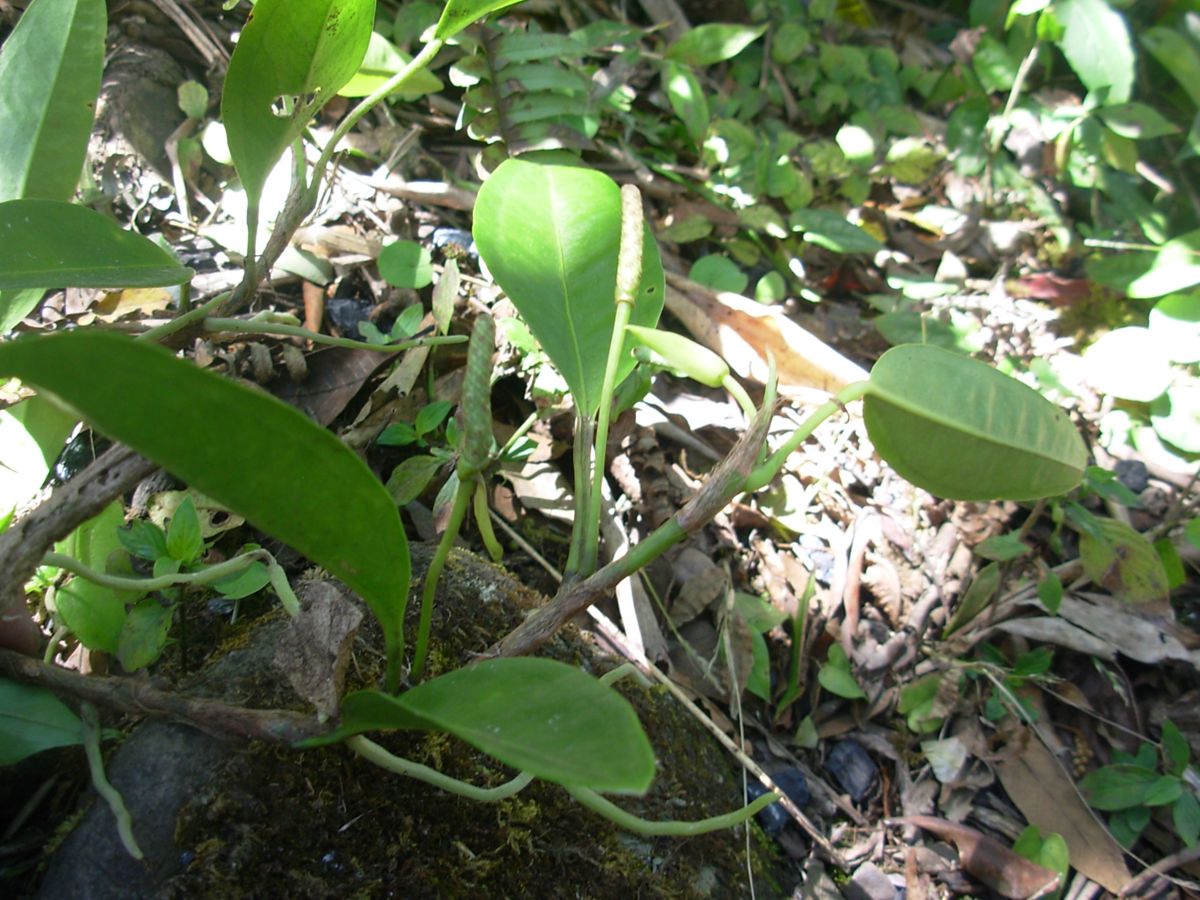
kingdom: Plantae
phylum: Tracheophyta
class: Liliopsida
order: Alismatales
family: Araceae
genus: Anthurium
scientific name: Anthurium scandens
